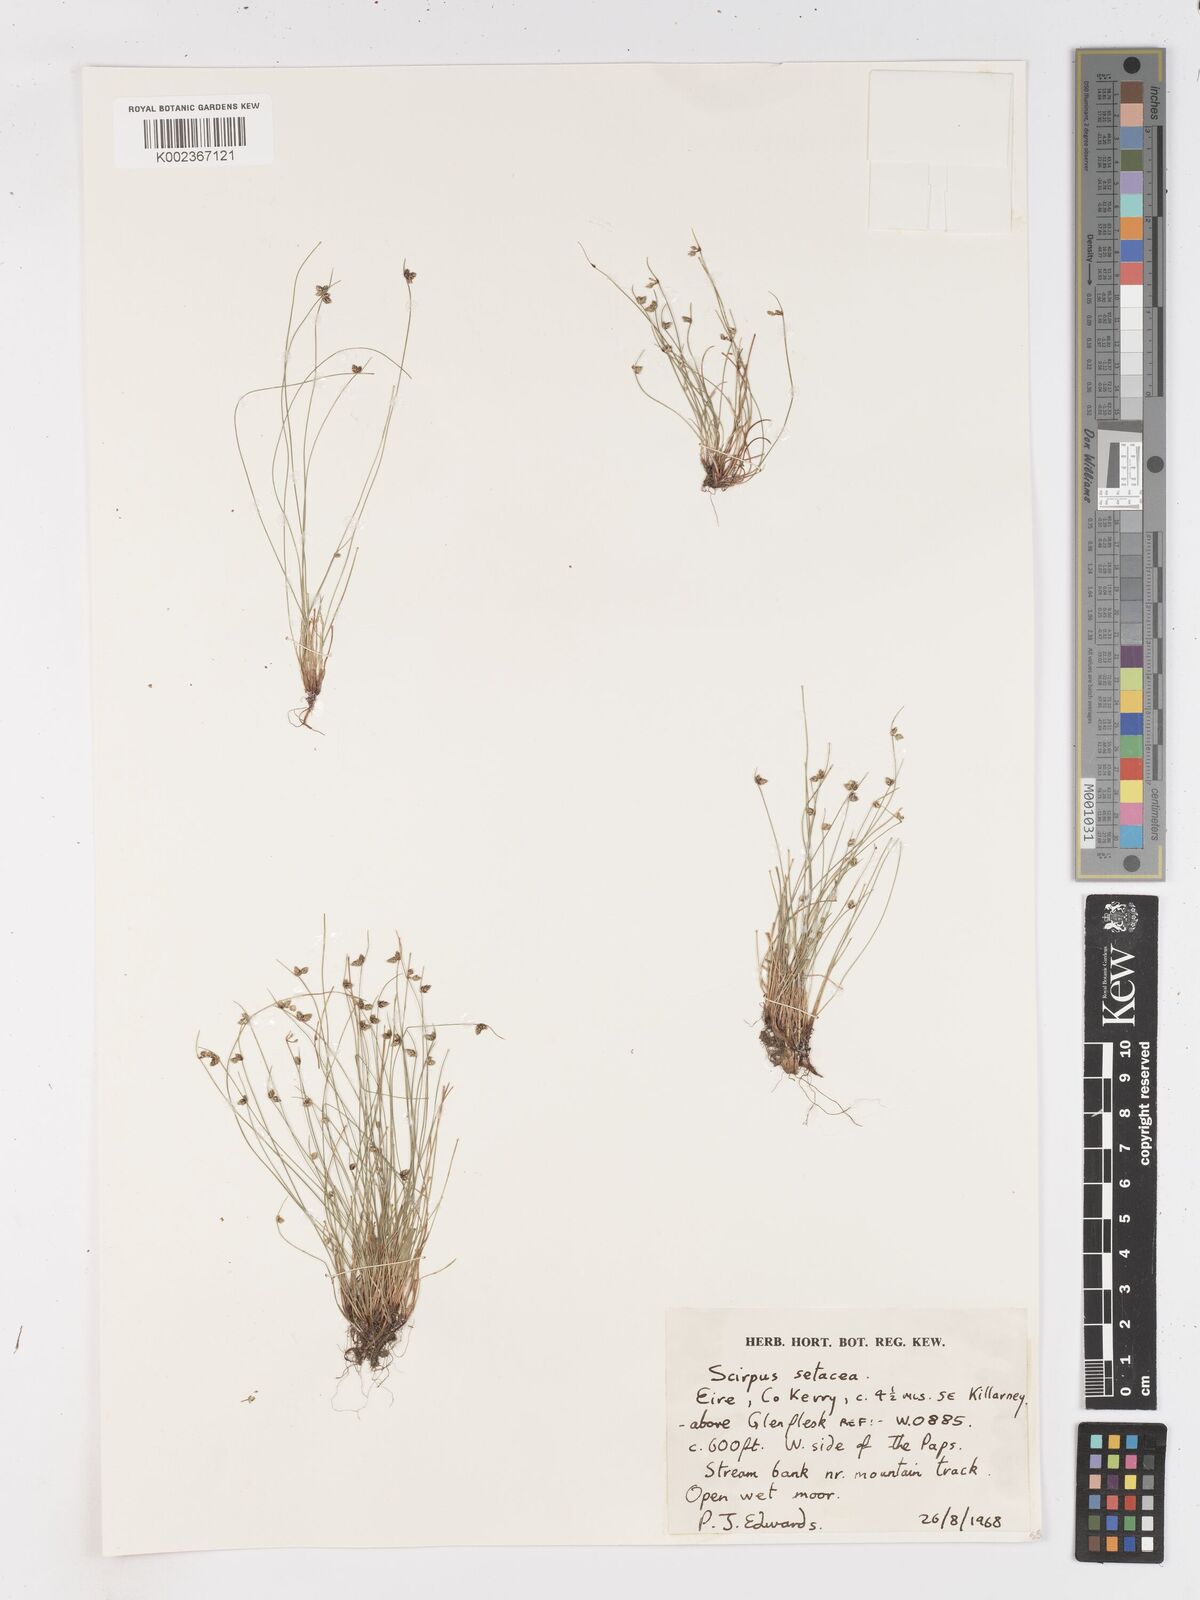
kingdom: Plantae
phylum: Tracheophyta
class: Liliopsida
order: Poales
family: Cyperaceae
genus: Isolepis
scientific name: Isolepis setacea
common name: Bristle club-rush
